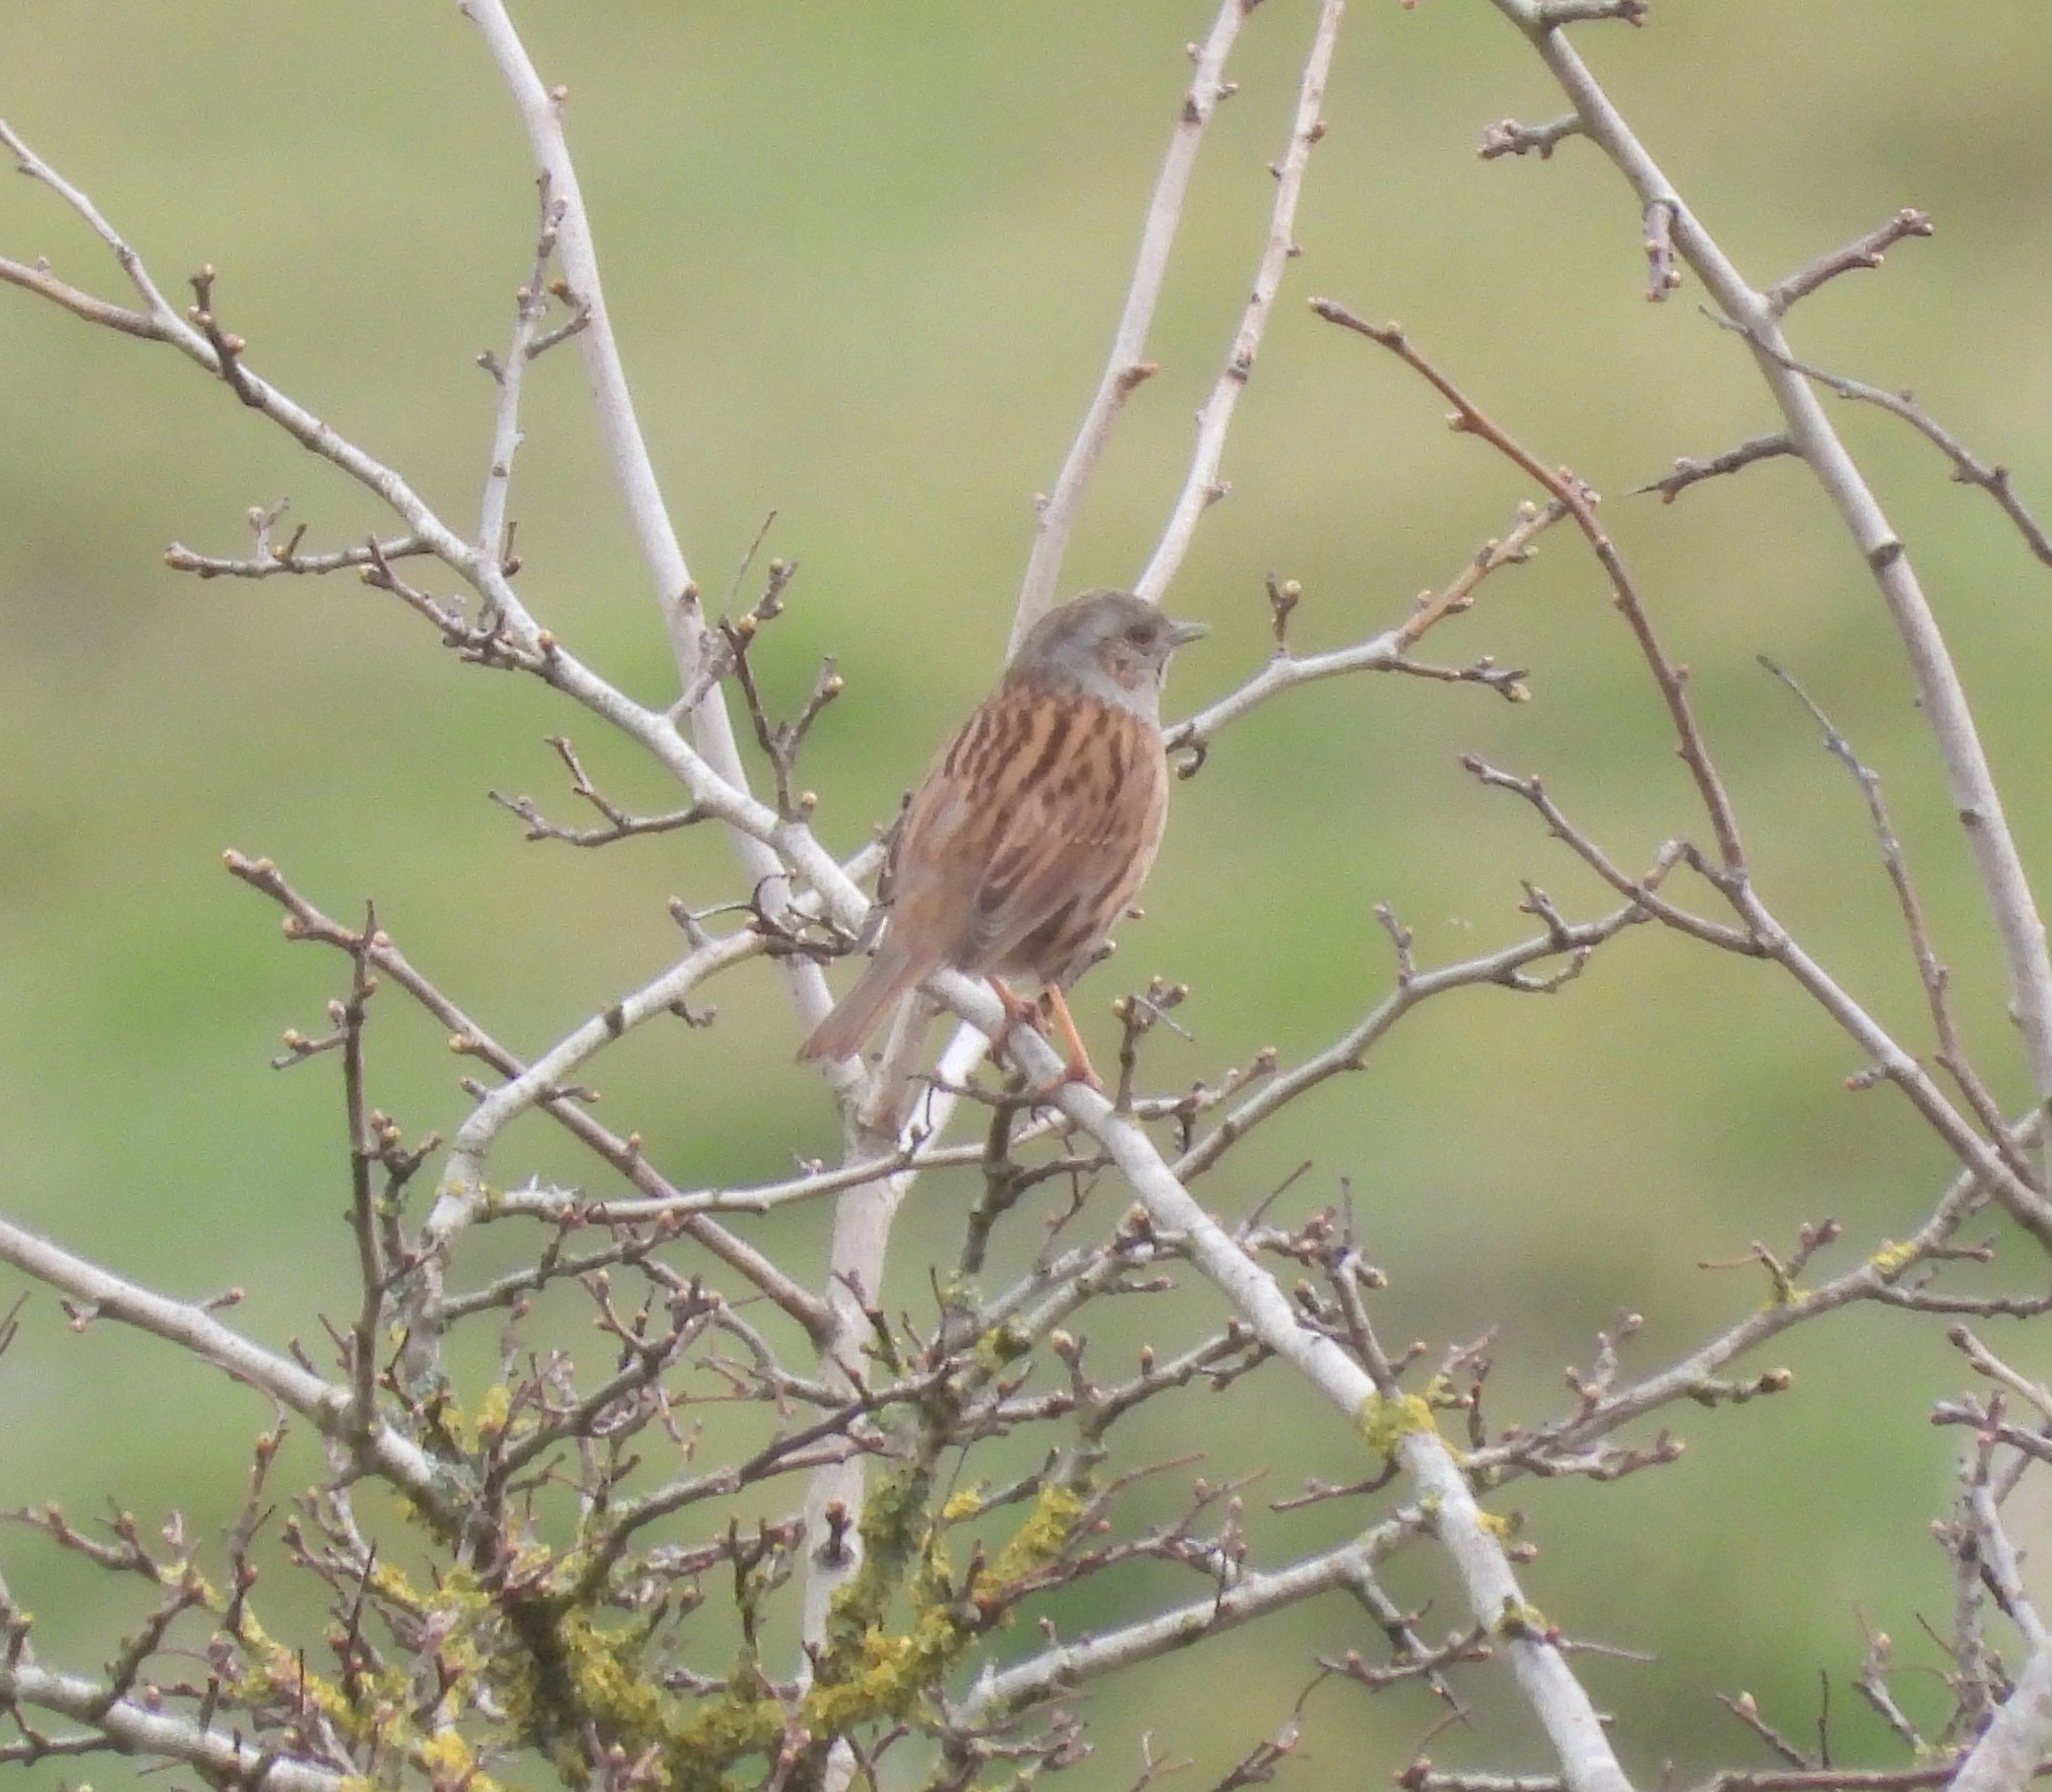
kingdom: Animalia
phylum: Chordata
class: Aves
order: Passeriformes
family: Prunellidae
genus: Prunella
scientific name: Prunella modularis
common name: Jernspurv
